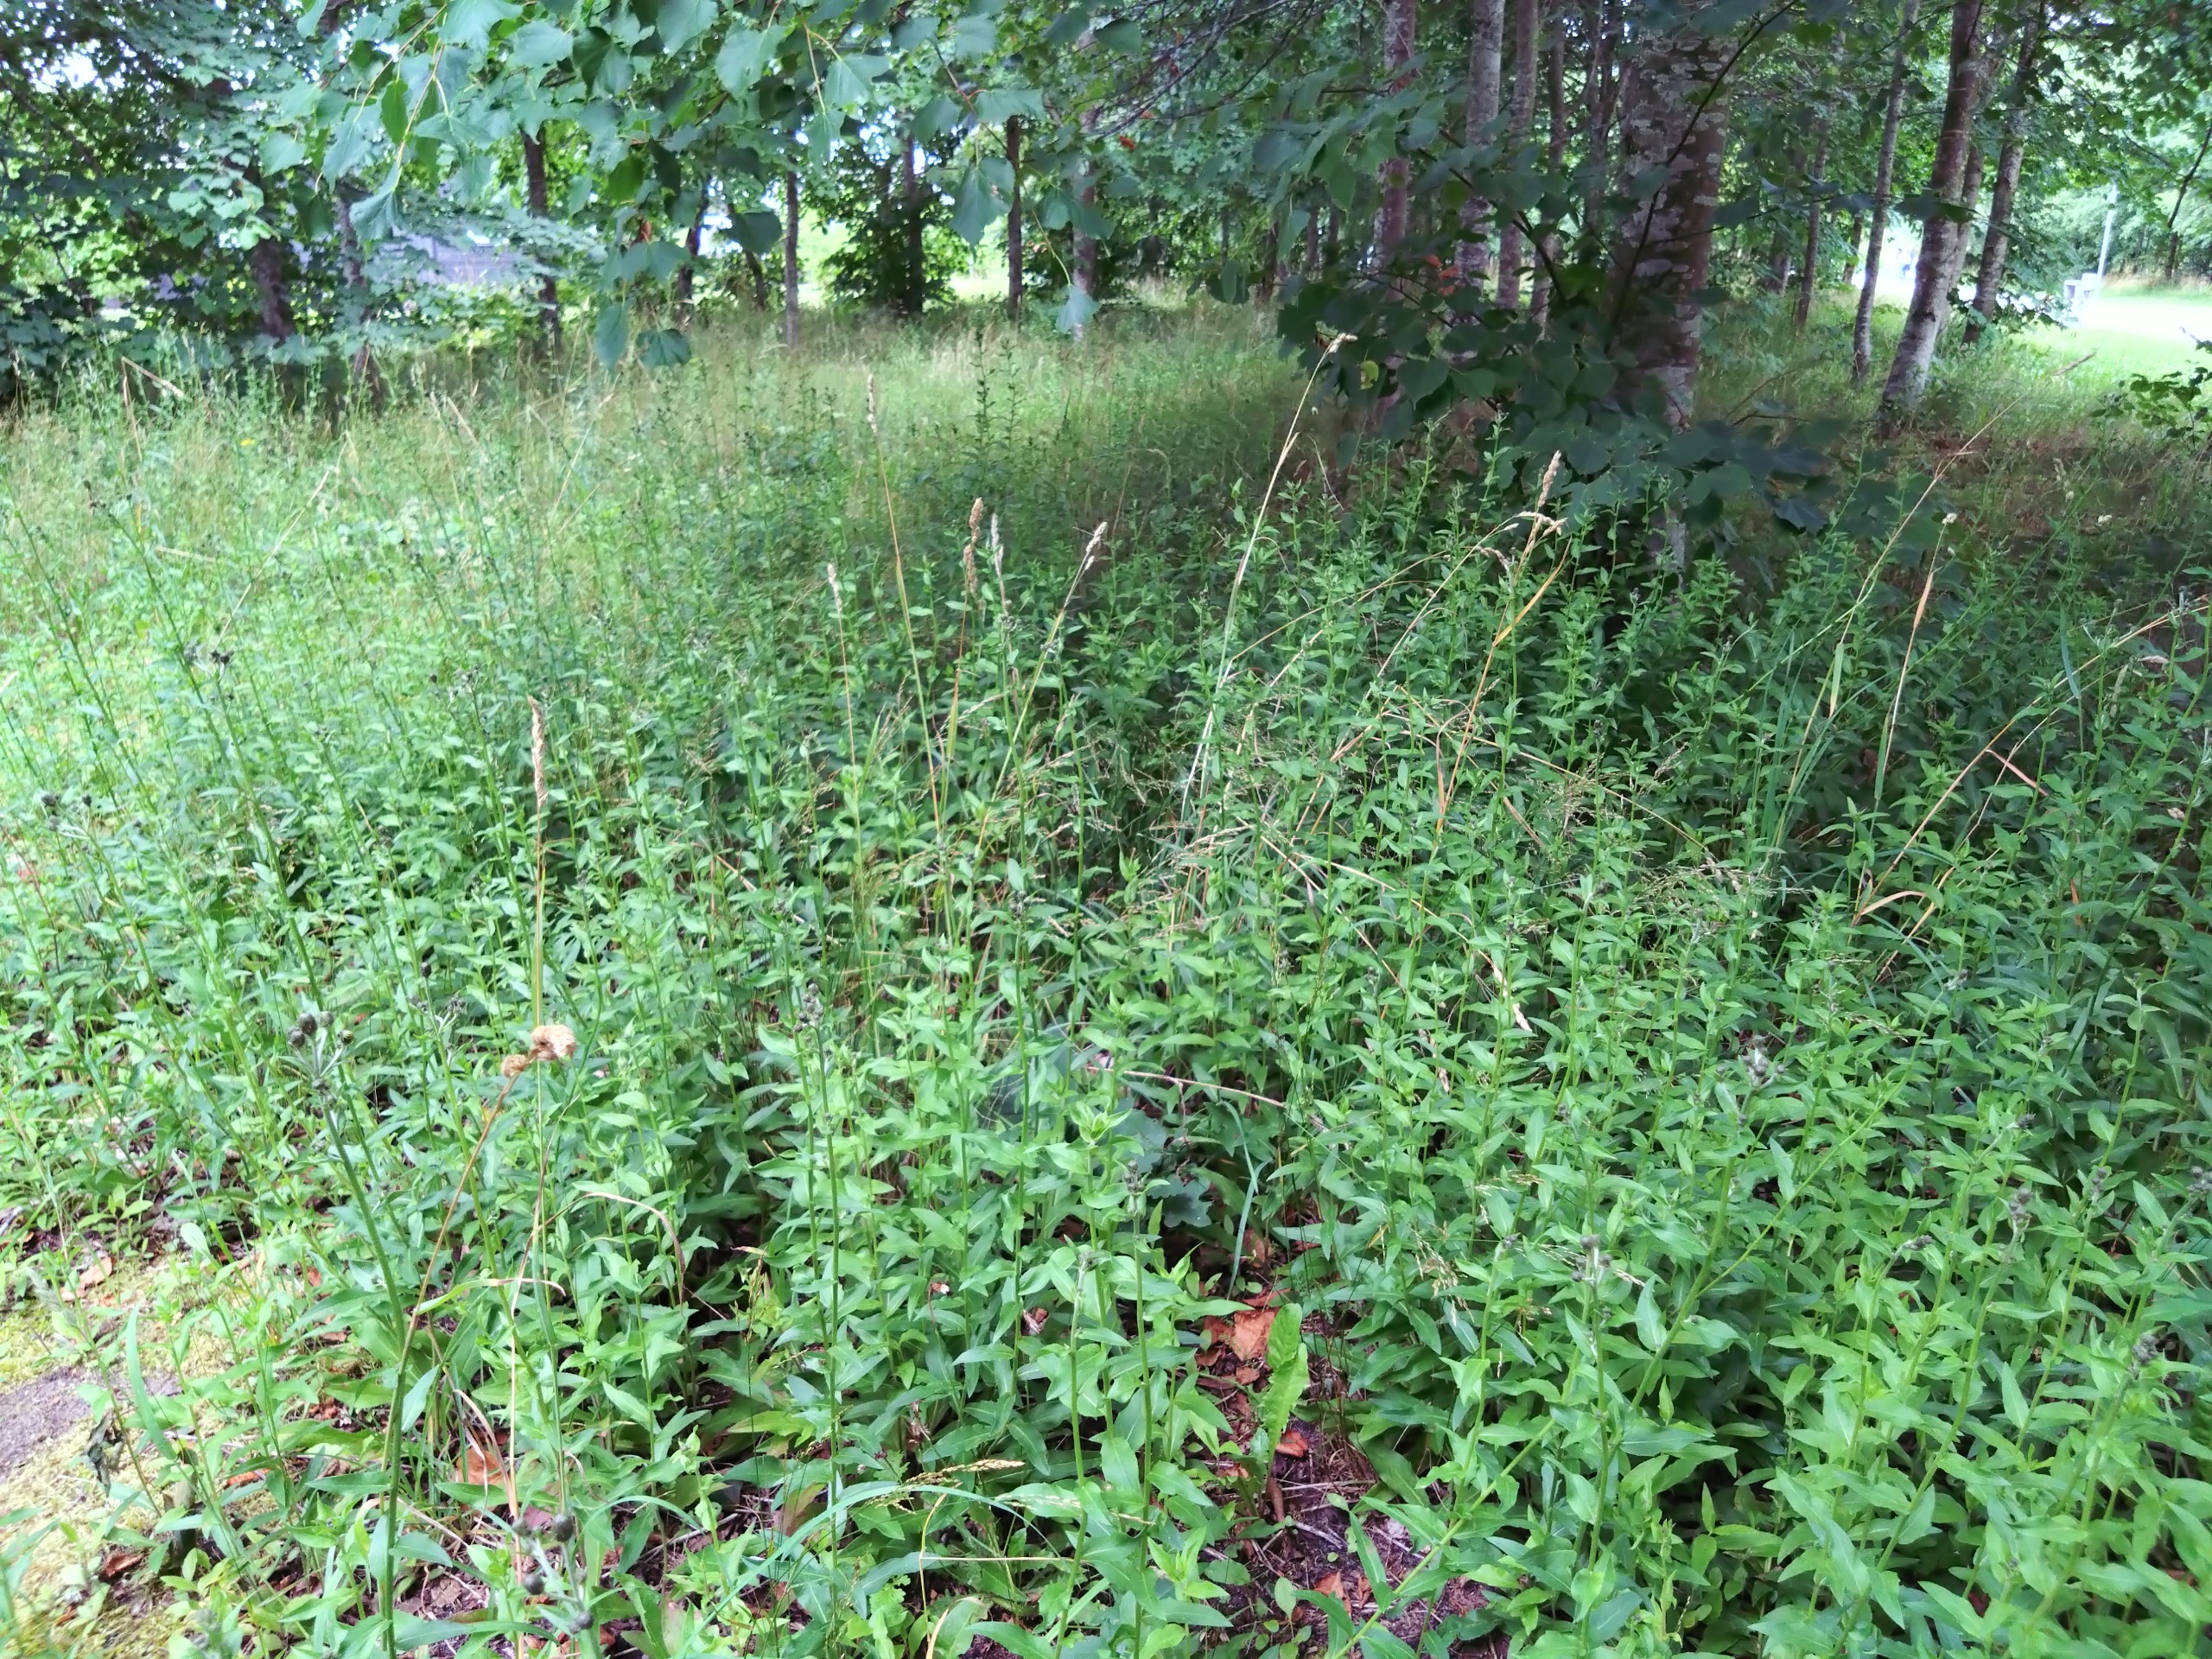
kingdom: Plantae
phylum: Tracheophyta
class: Magnoliopsida
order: Asterales
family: Asteraceae
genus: Hieracium
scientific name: Hieracium
